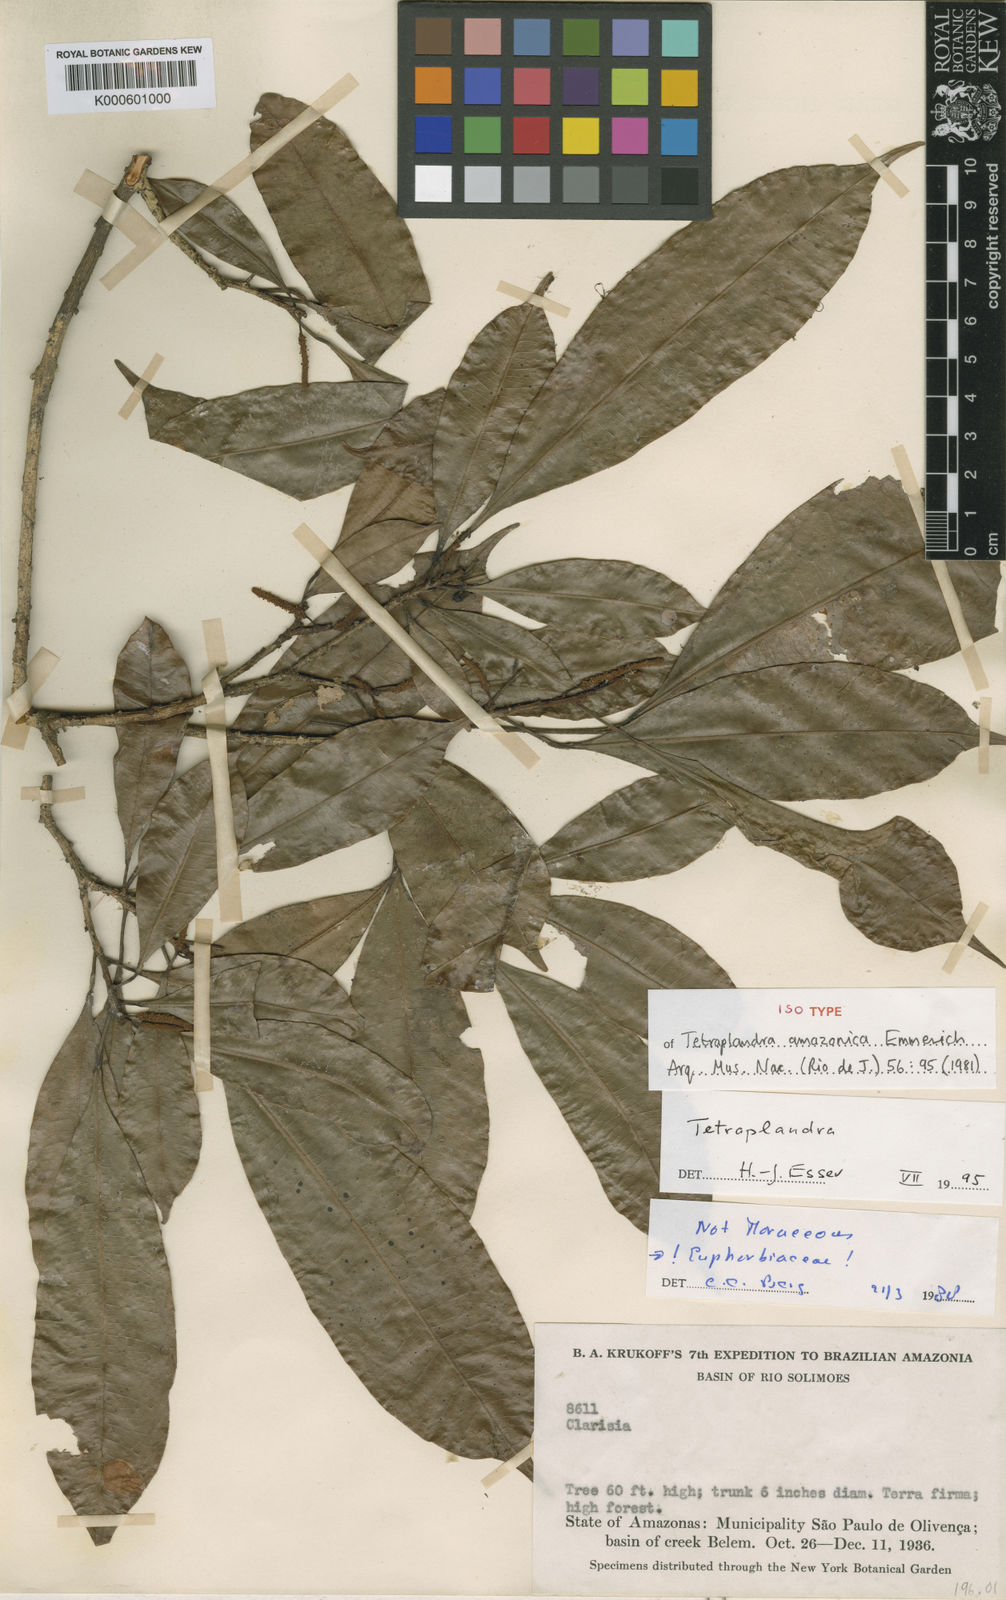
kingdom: Plantae
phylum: Tracheophyta
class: Magnoliopsida
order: Malpighiales
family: Euphorbiaceae
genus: Algernonia
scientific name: Algernonia amazonica
